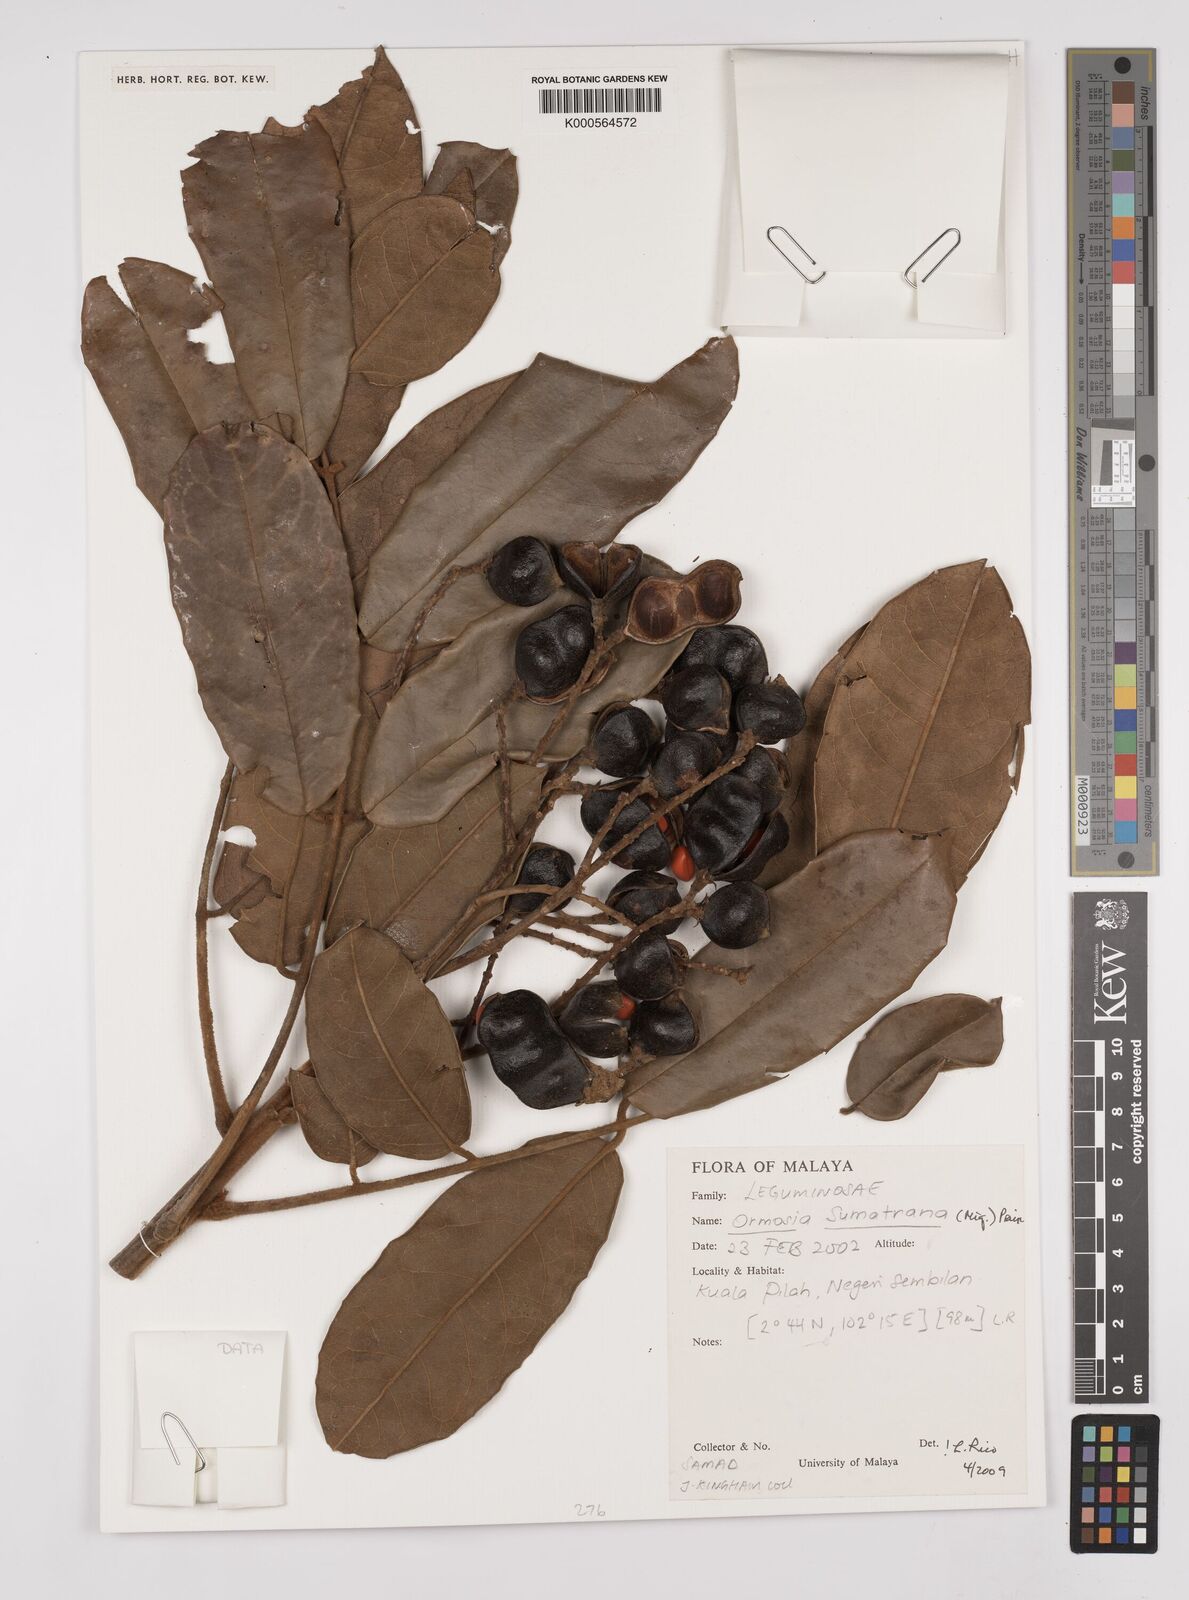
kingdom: Plantae
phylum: Tracheophyta
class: Magnoliopsida
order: Fabales
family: Fabaceae
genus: Ormosia
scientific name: Ormosia sumatrana
